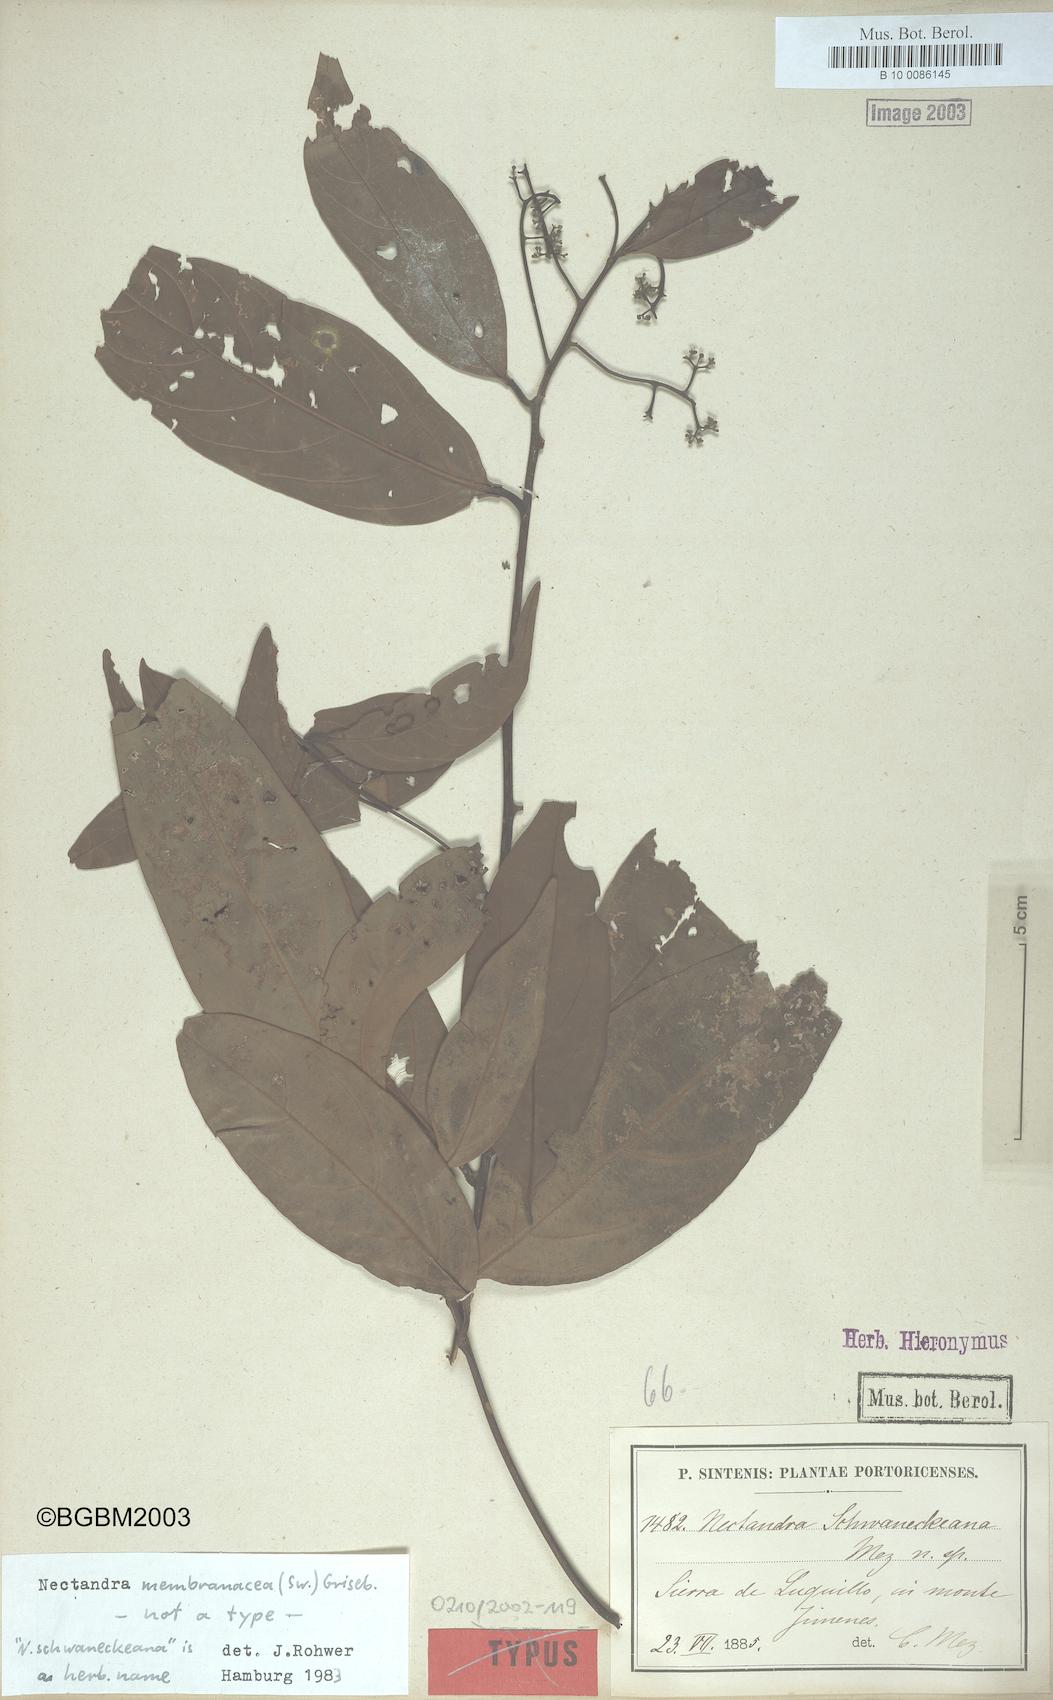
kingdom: Plantae
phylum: Tracheophyta
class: Magnoliopsida
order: Laurales
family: Lauraceae
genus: Nectandra
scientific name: Nectandra membranacea
